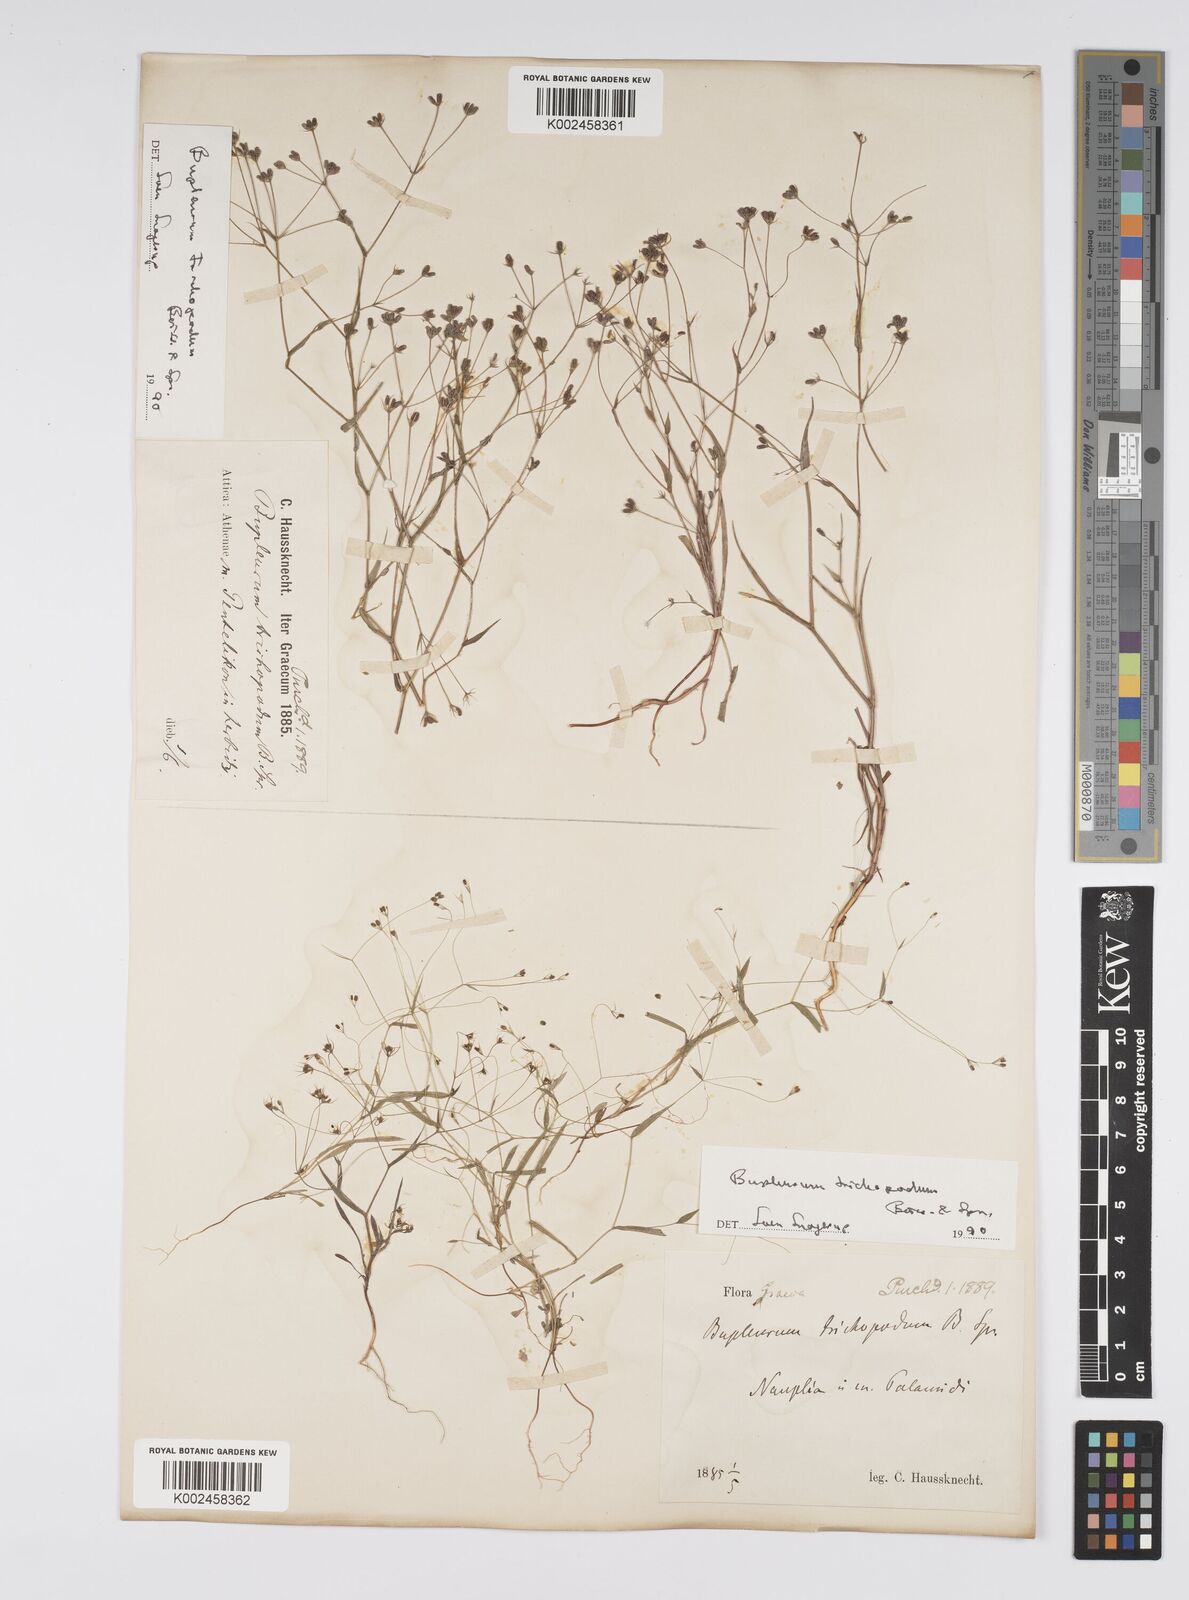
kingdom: Plantae
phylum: Tracheophyta
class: Magnoliopsida
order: Apiales
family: Apiaceae
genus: Bupleurum
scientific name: Bupleurum trichopodum
